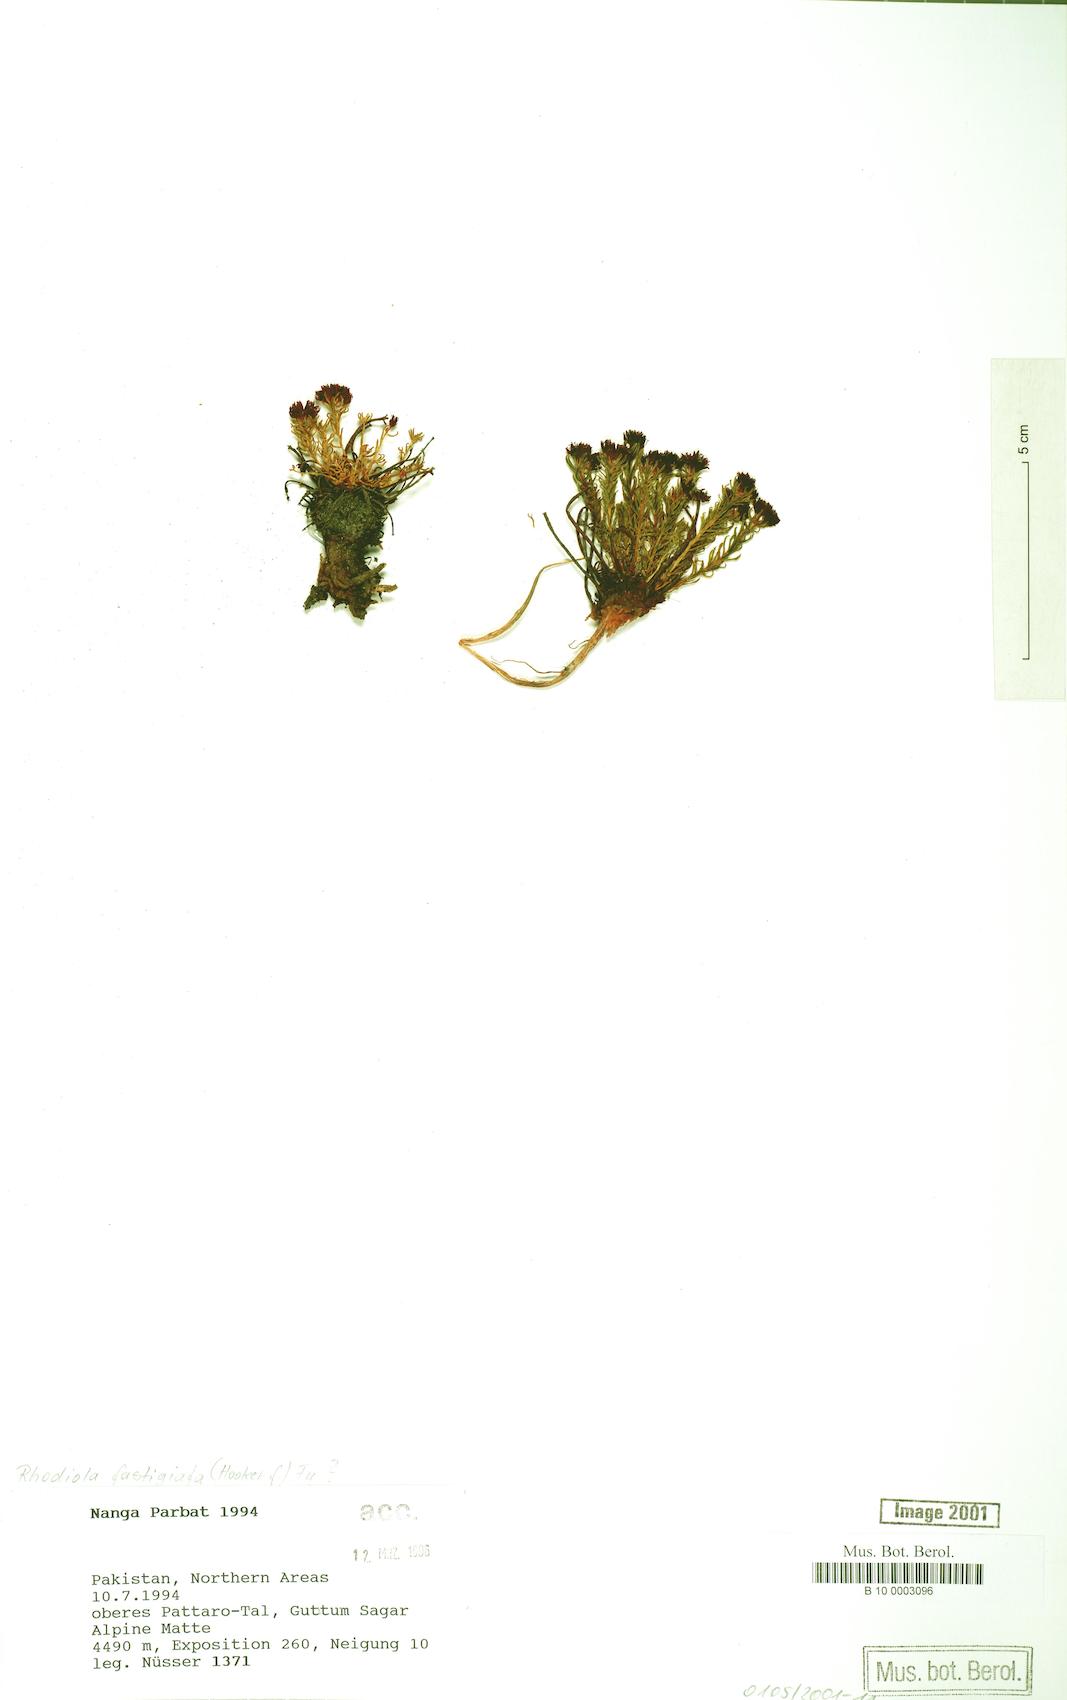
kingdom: Plantae
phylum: Tracheophyta
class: Magnoliopsida
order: Saxifragales
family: Crassulaceae
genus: Rhodiola
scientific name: Rhodiola fastigiata
